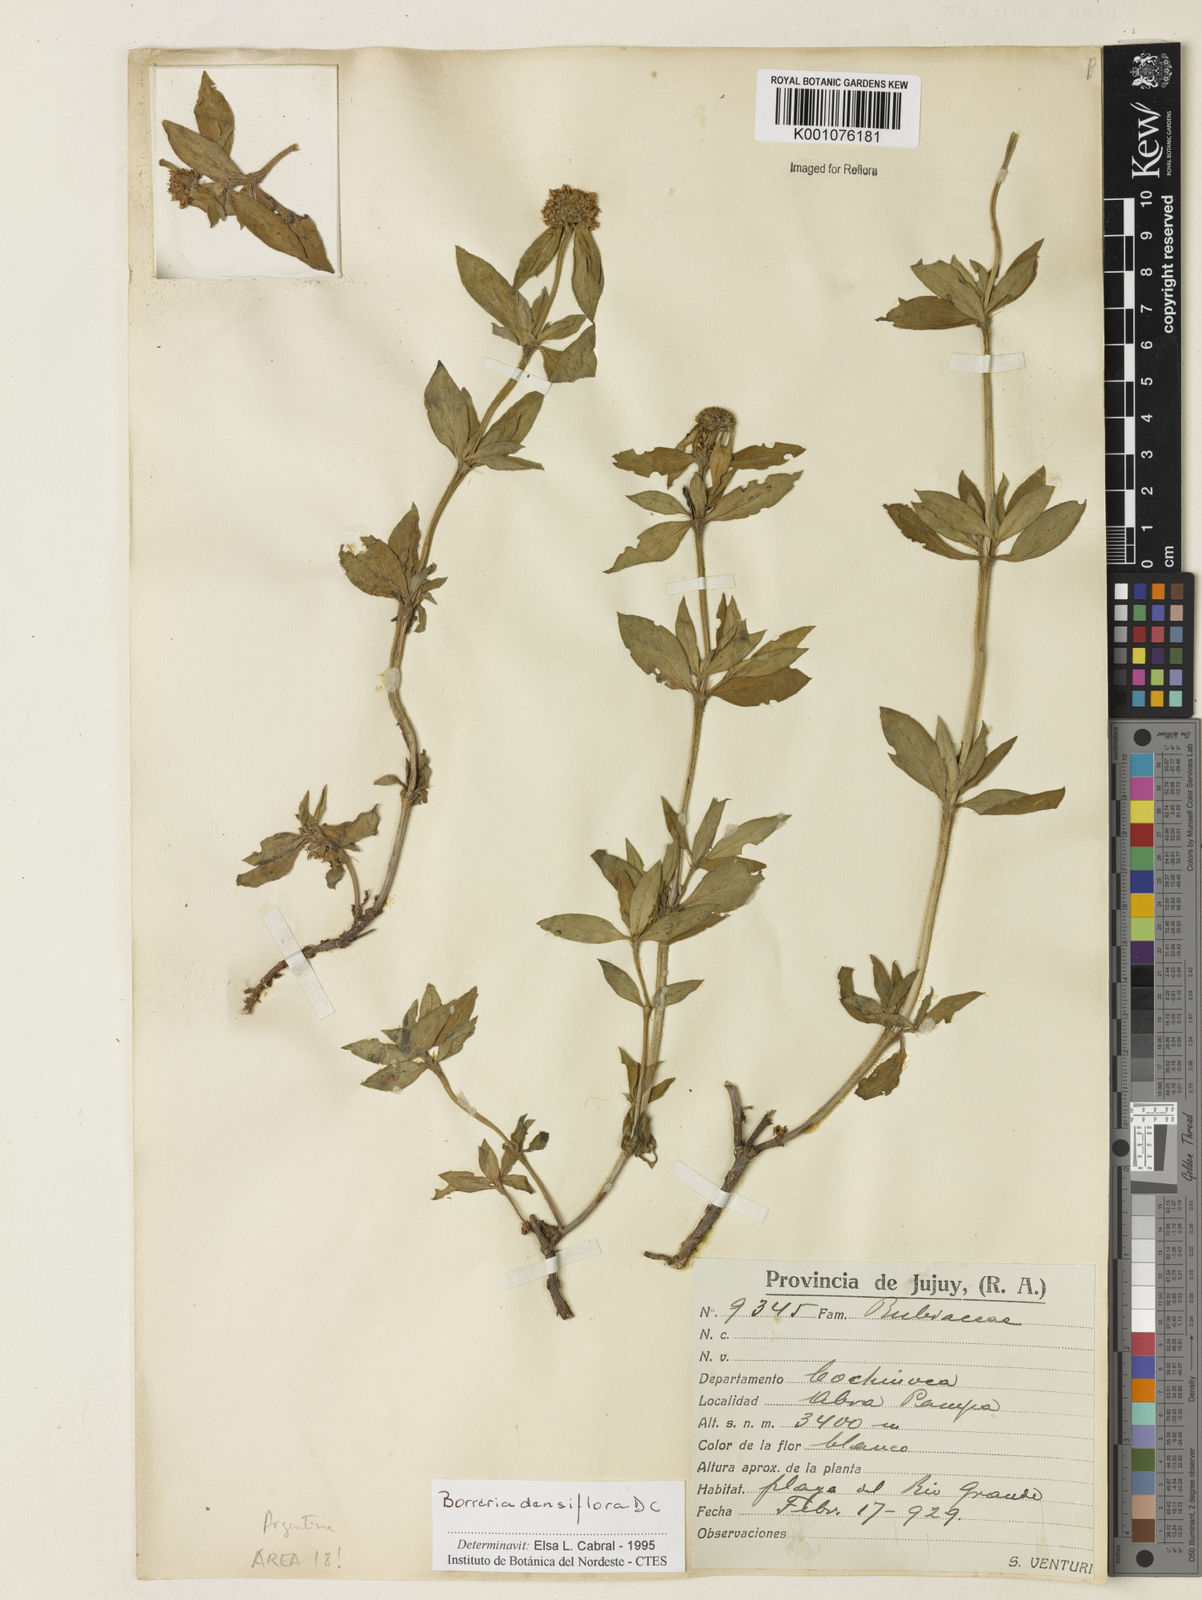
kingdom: Plantae
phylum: Tracheophyta
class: Magnoliopsida
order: Gentianales
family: Rubiaceae
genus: Spermacoce
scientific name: Spermacoce densiflora
